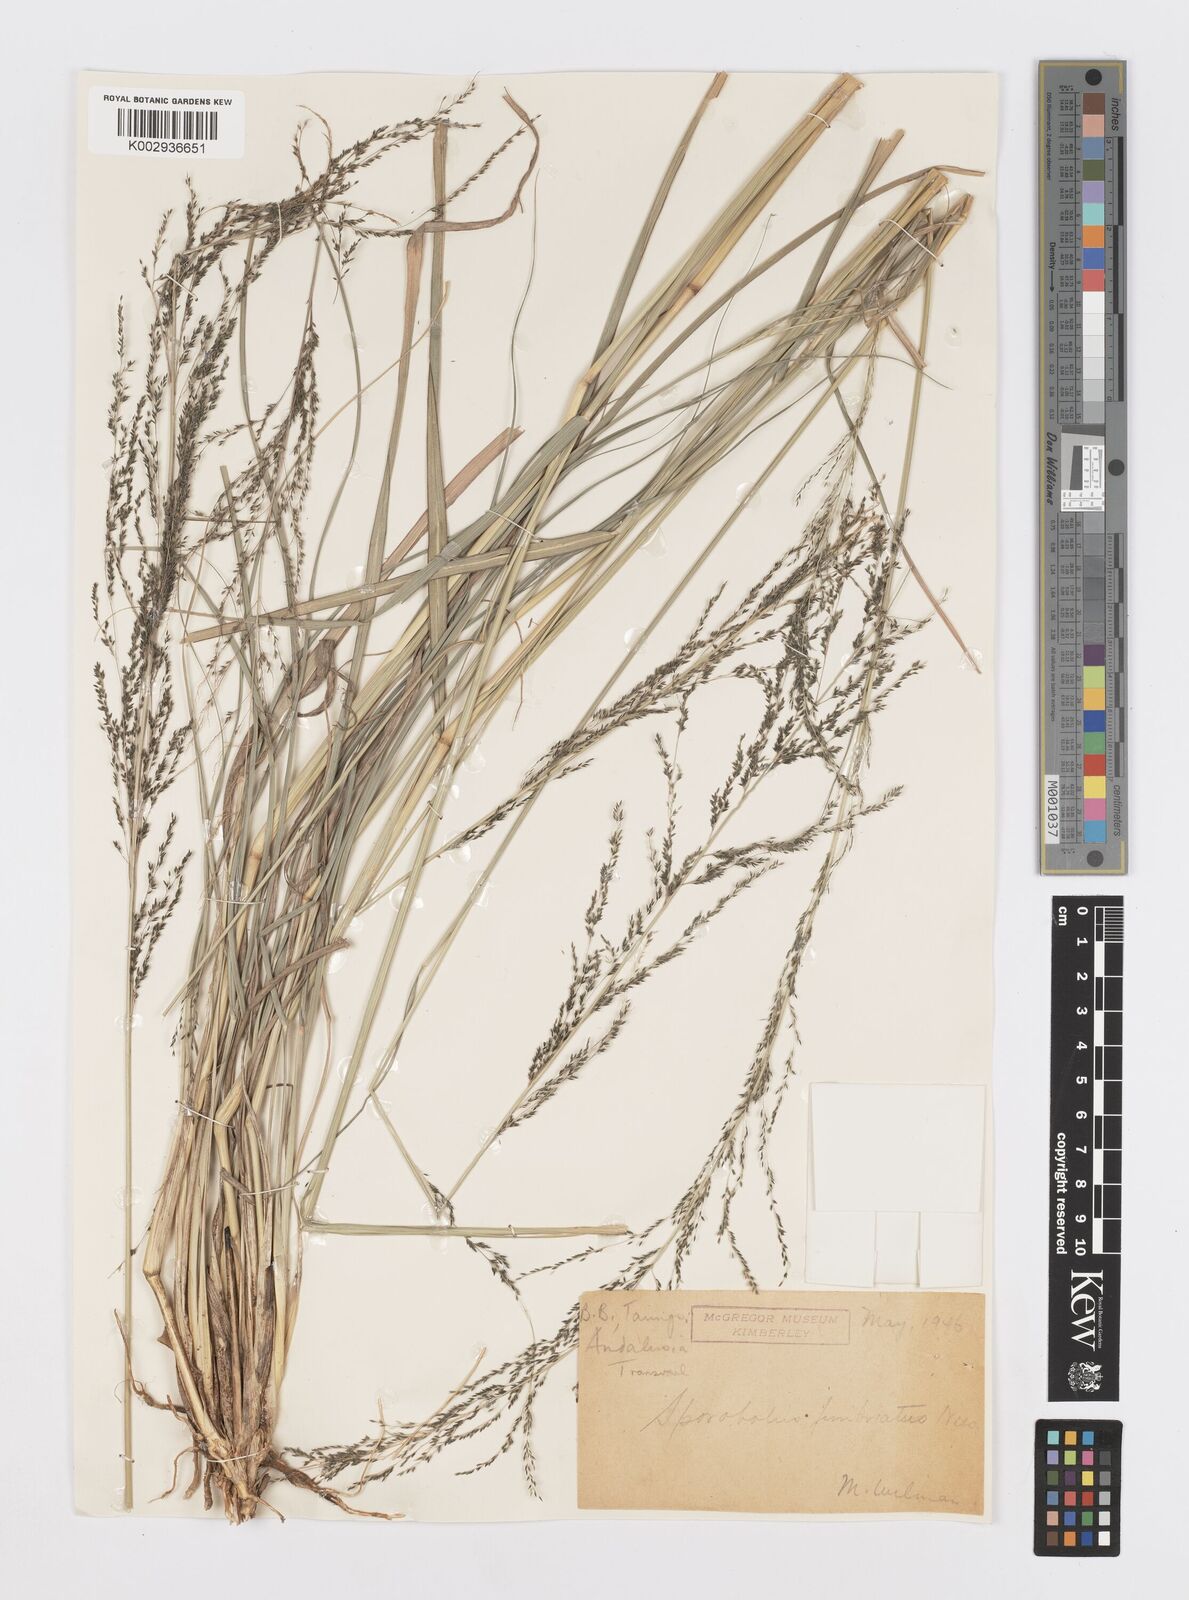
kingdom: Plantae
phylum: Tracheophyta
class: Liliopsida
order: Poales
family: Poaceae
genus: Sporobolus
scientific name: Sporobolus fimbriatus
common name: Fringed dropseed
